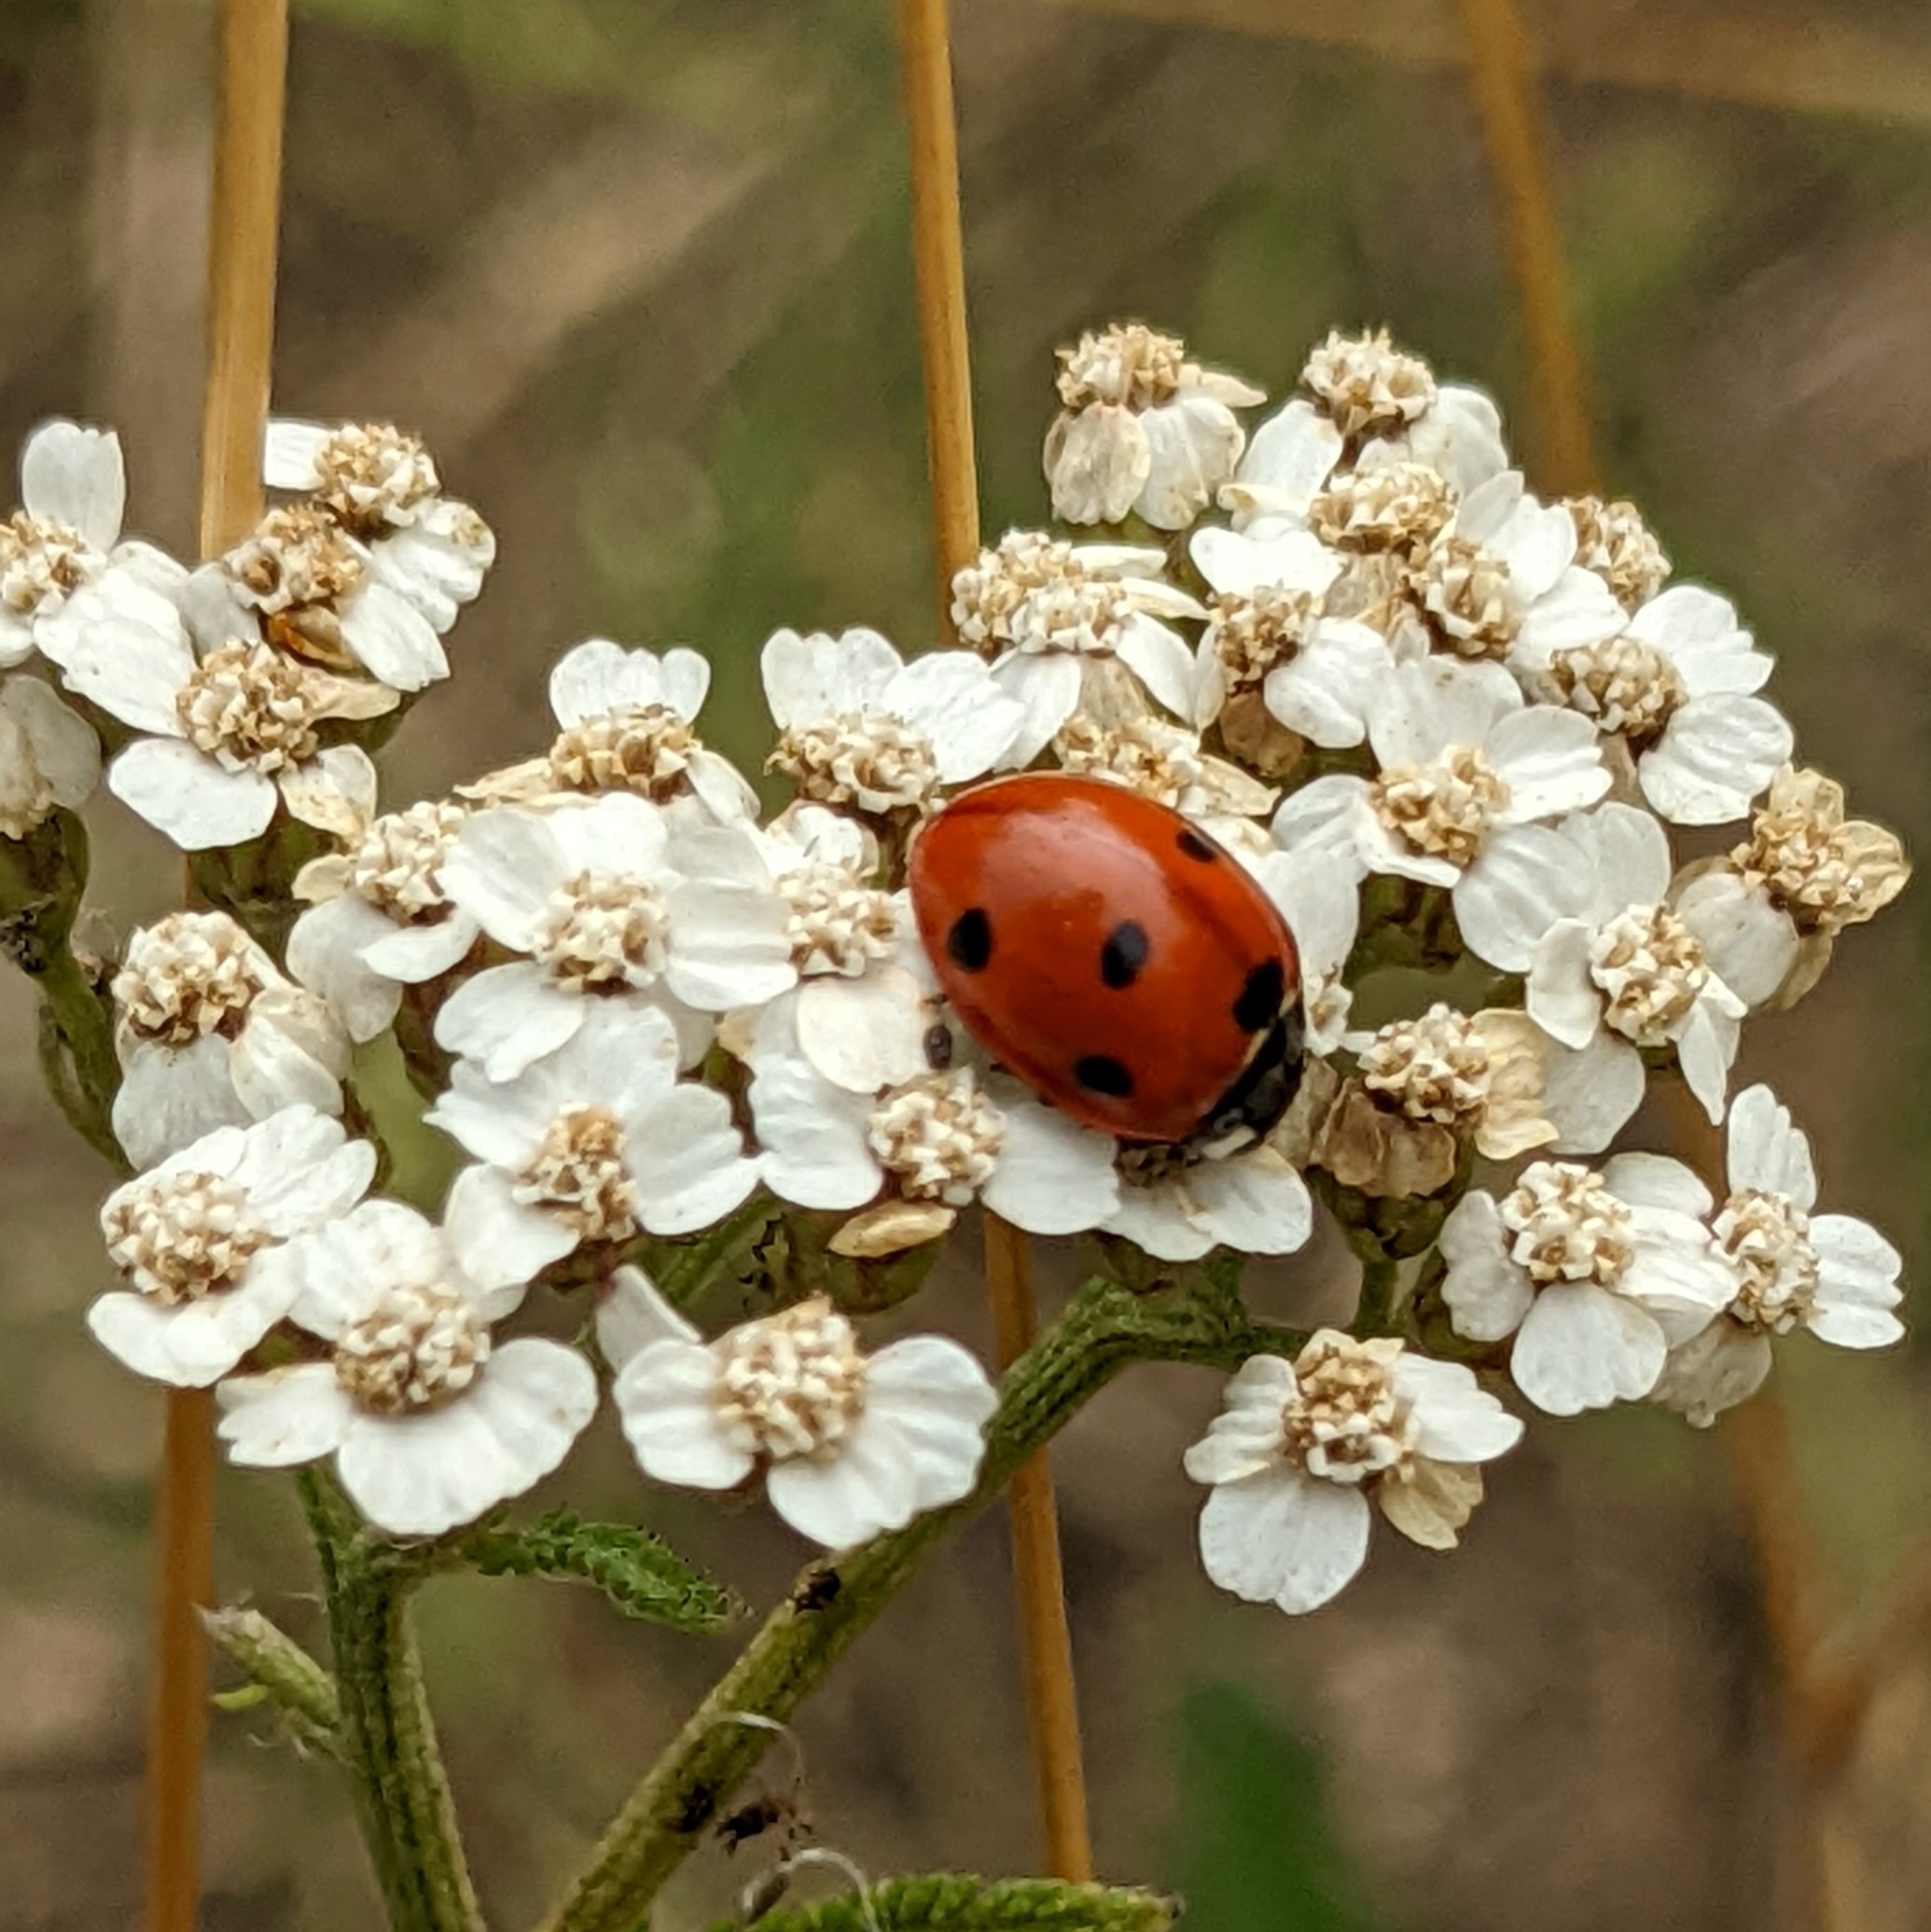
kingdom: Animalia
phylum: Arthropoda
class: Insecta
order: Coleoptera
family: Coccinellidae
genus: Coccinella
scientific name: Coccinella septempunctata
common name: Syvplettet mariehøne
